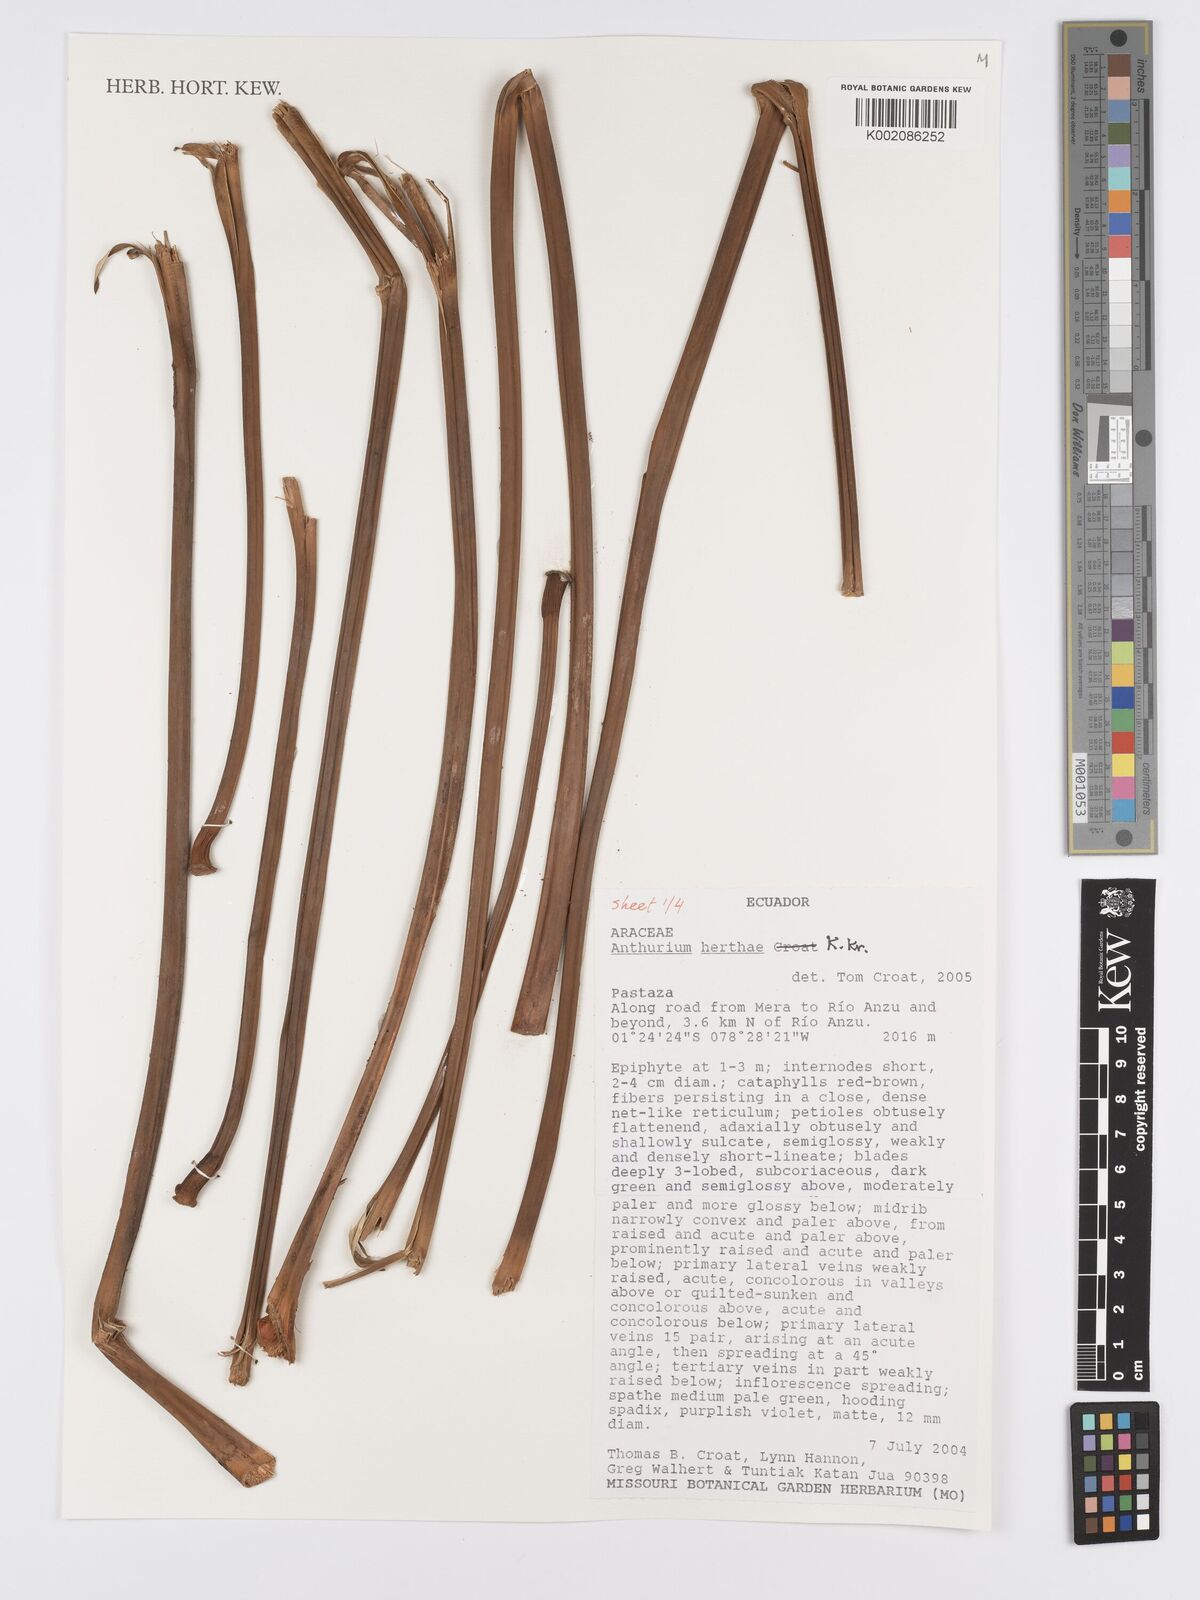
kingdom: Plantae
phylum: Tracheophyta
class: Liliopsida
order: Alismatales
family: Araceae
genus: Anthurium
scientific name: Anthurium herthae
